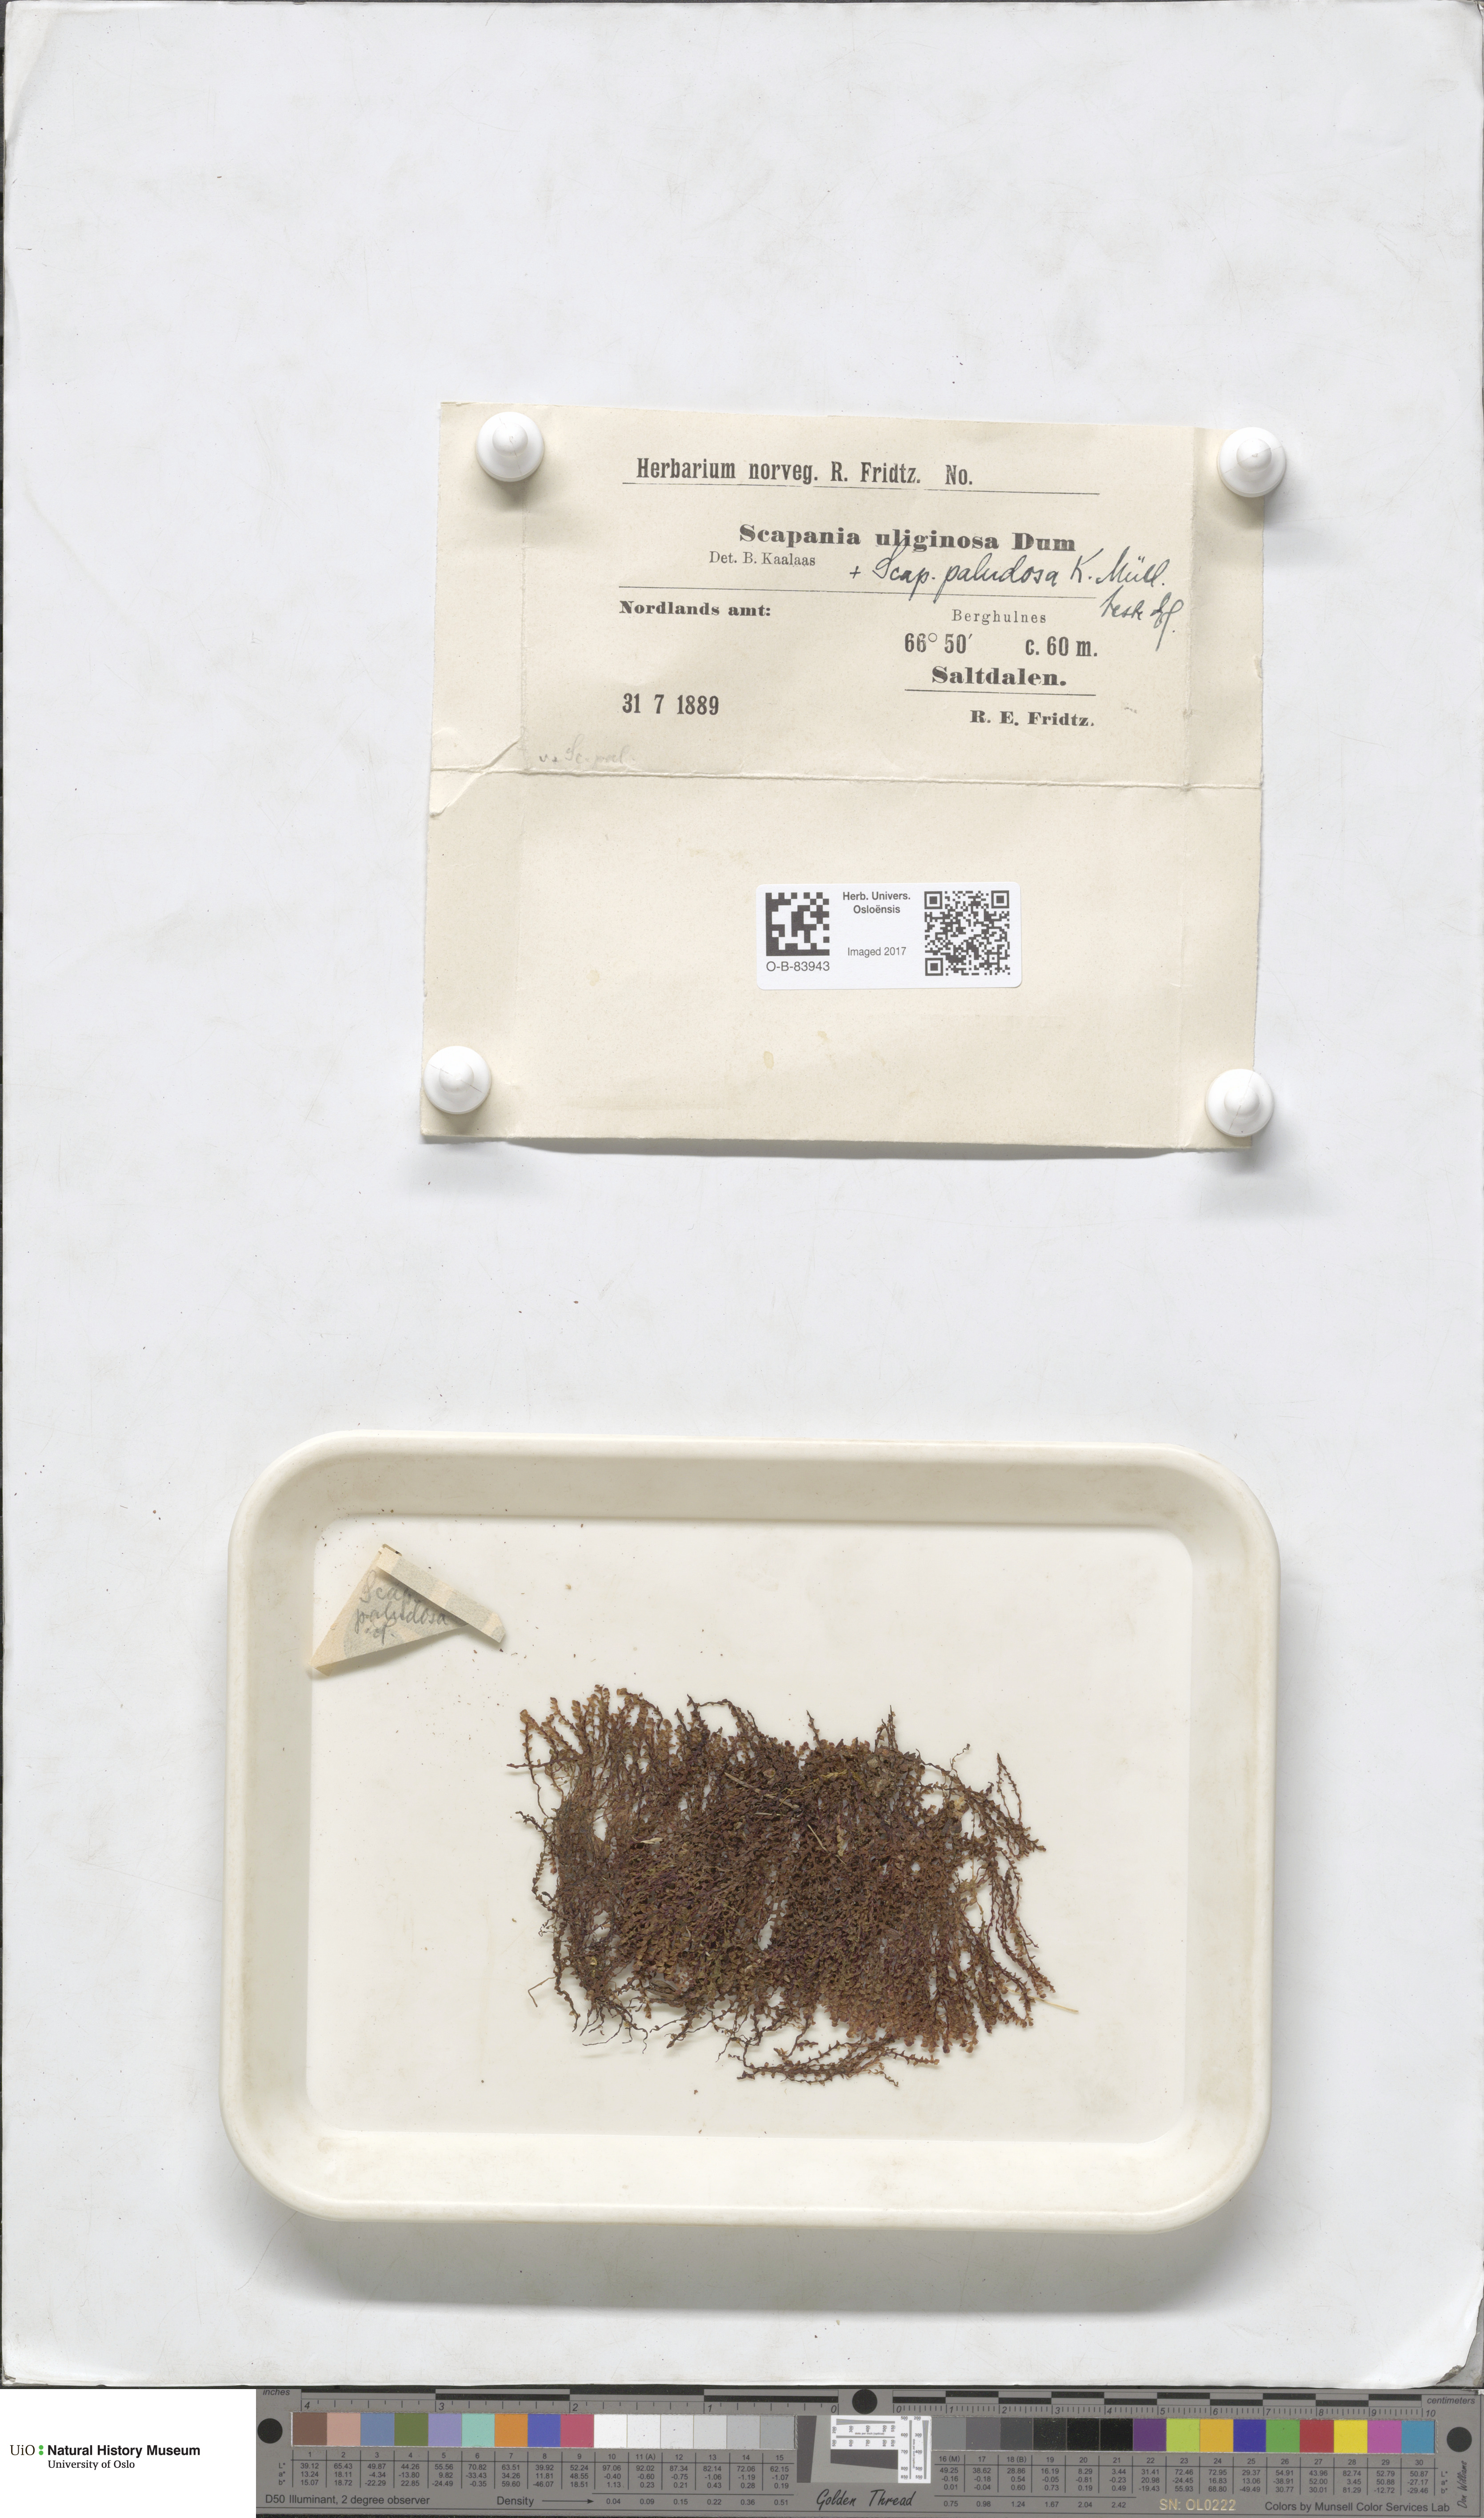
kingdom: Plantae
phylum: Marchantiophyta
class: Jungermanniopsida
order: Jungermanniales
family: Scapaniaceae
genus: Scapania
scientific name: Scapania uliginosa
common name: Marsh earwort
